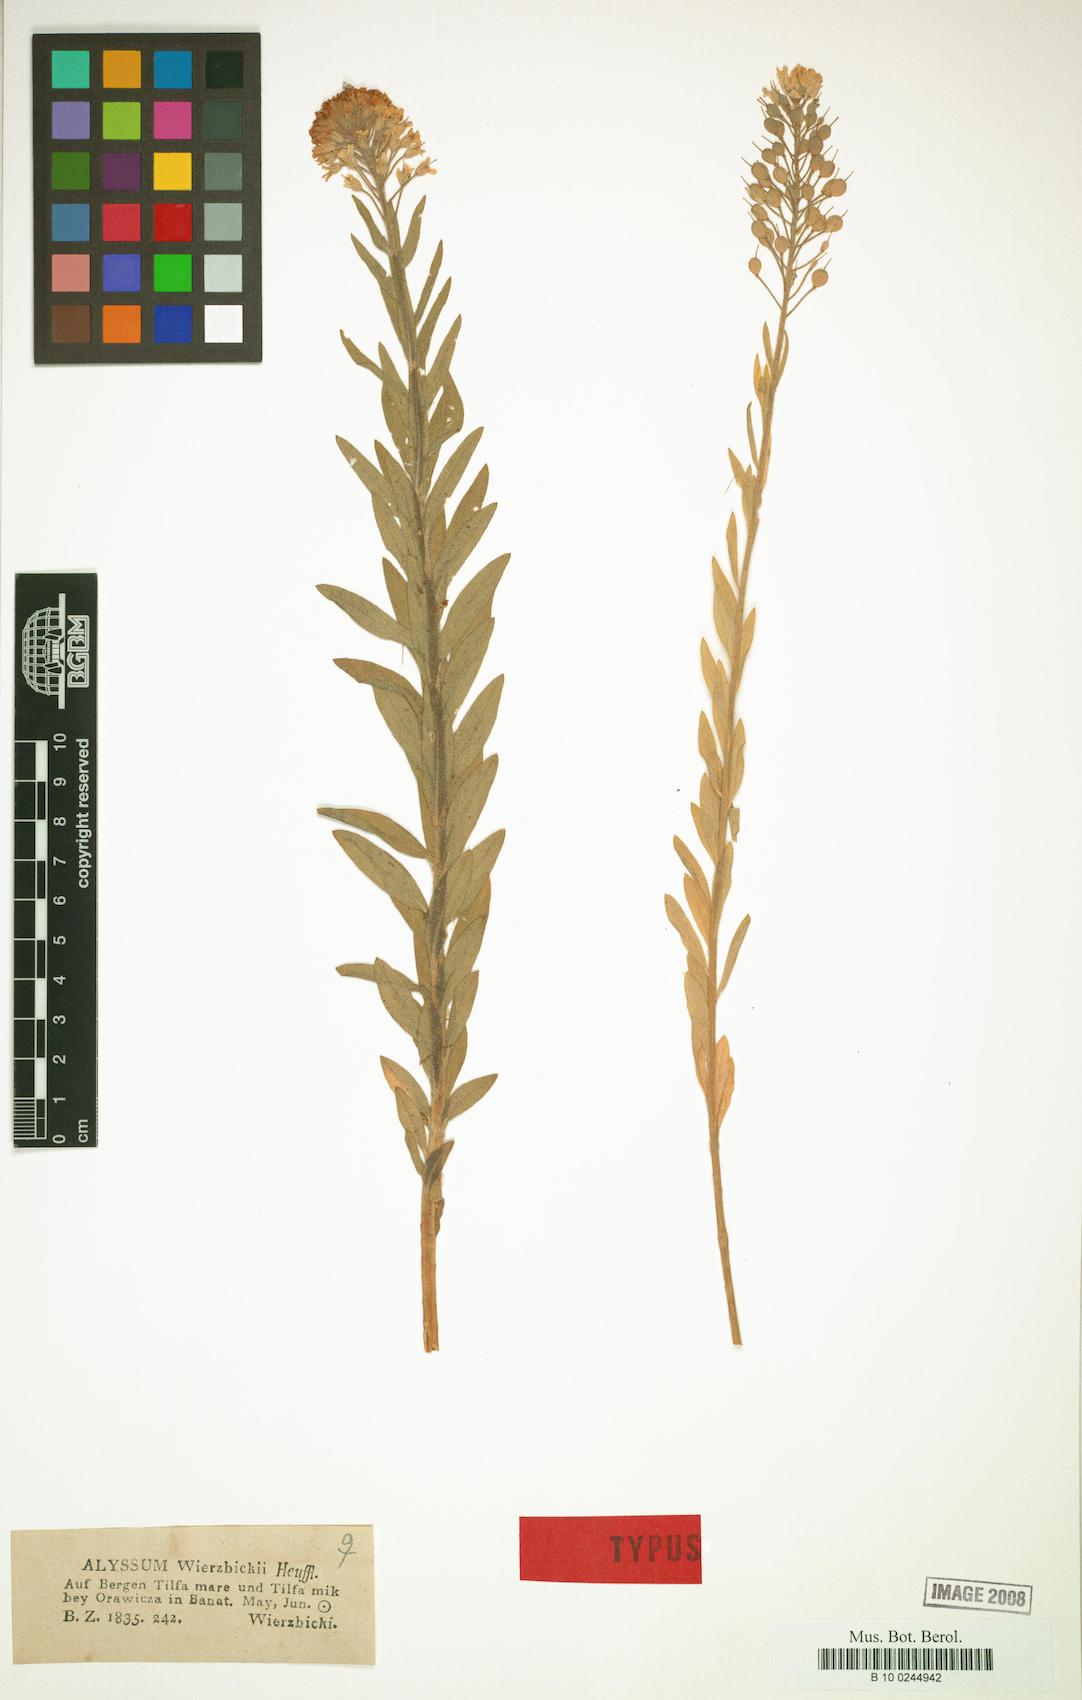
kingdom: Plantae
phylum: Tracheophyta
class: Magnoliopsida
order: Brassicales
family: Brassicaceae
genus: Alyssum
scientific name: Alyssum wierzbickii
